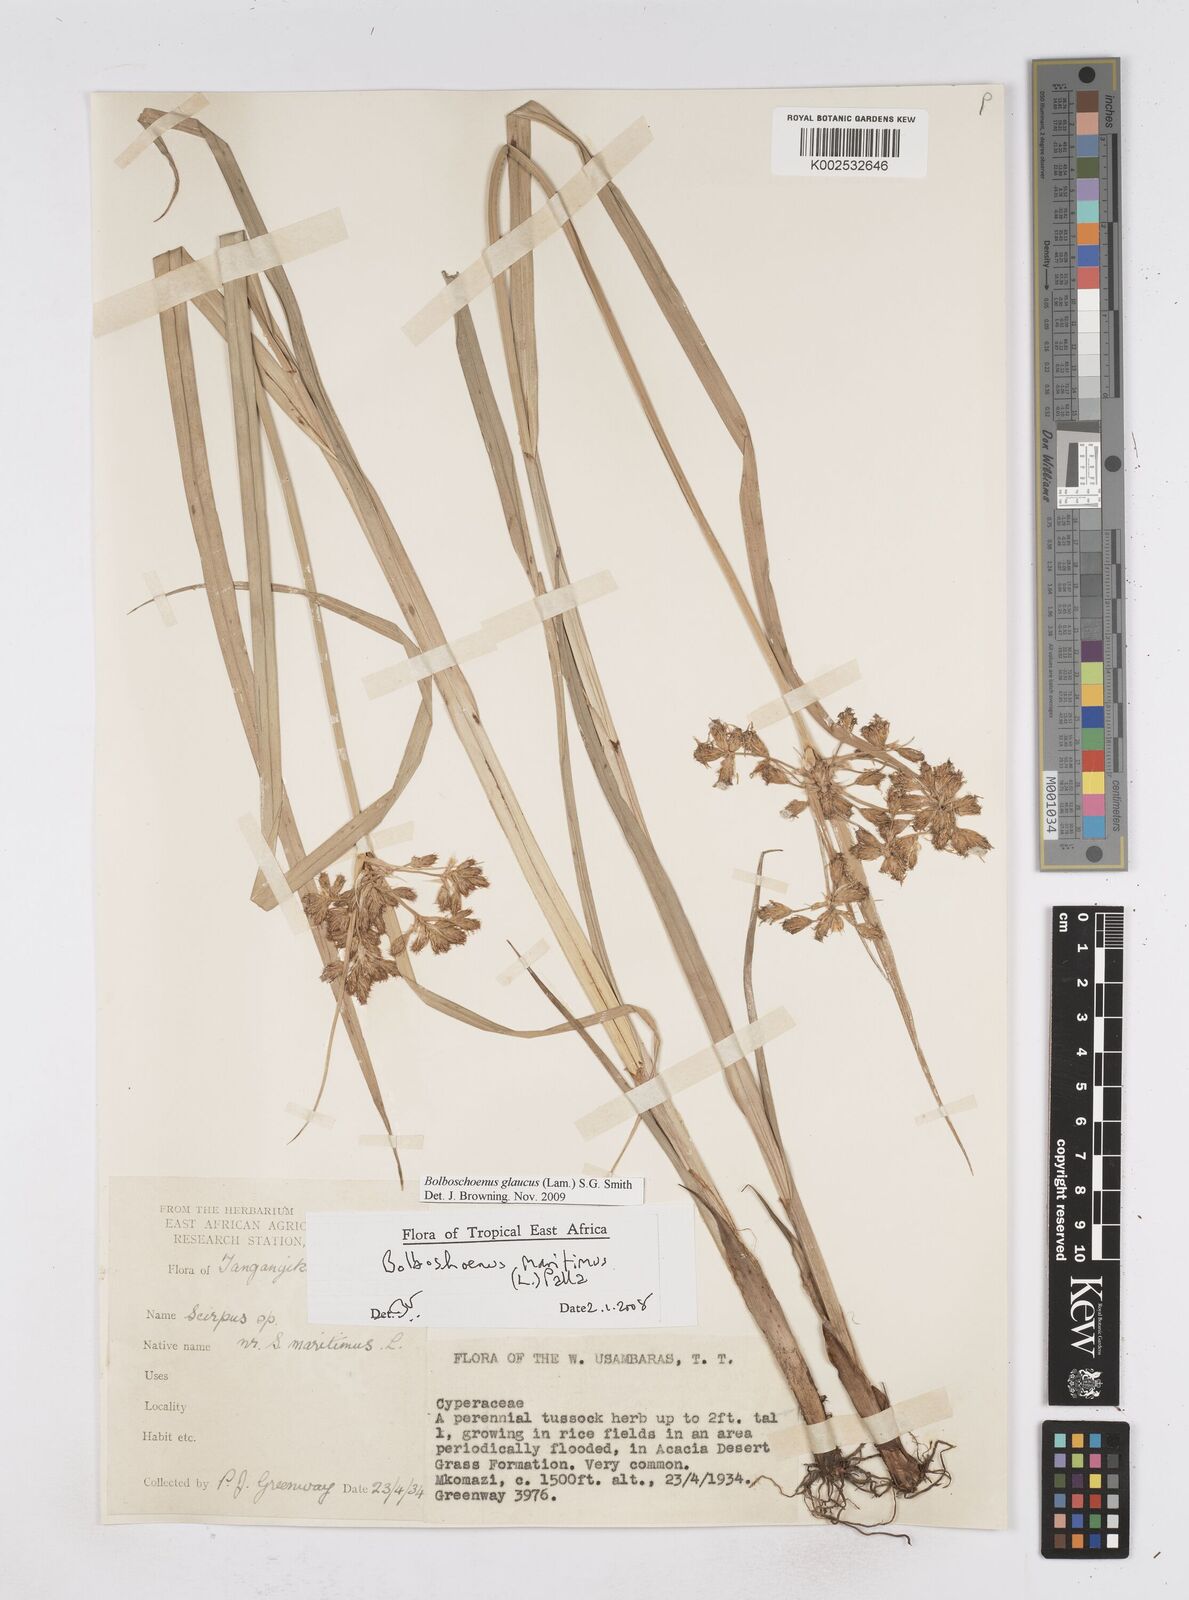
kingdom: Plantae
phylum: Tracheophyta
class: Liliopsida
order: Poales
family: Cyperaceae
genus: Bolboschoenus
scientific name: Bolboschoenus glaucus
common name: Tuberous bulrush
